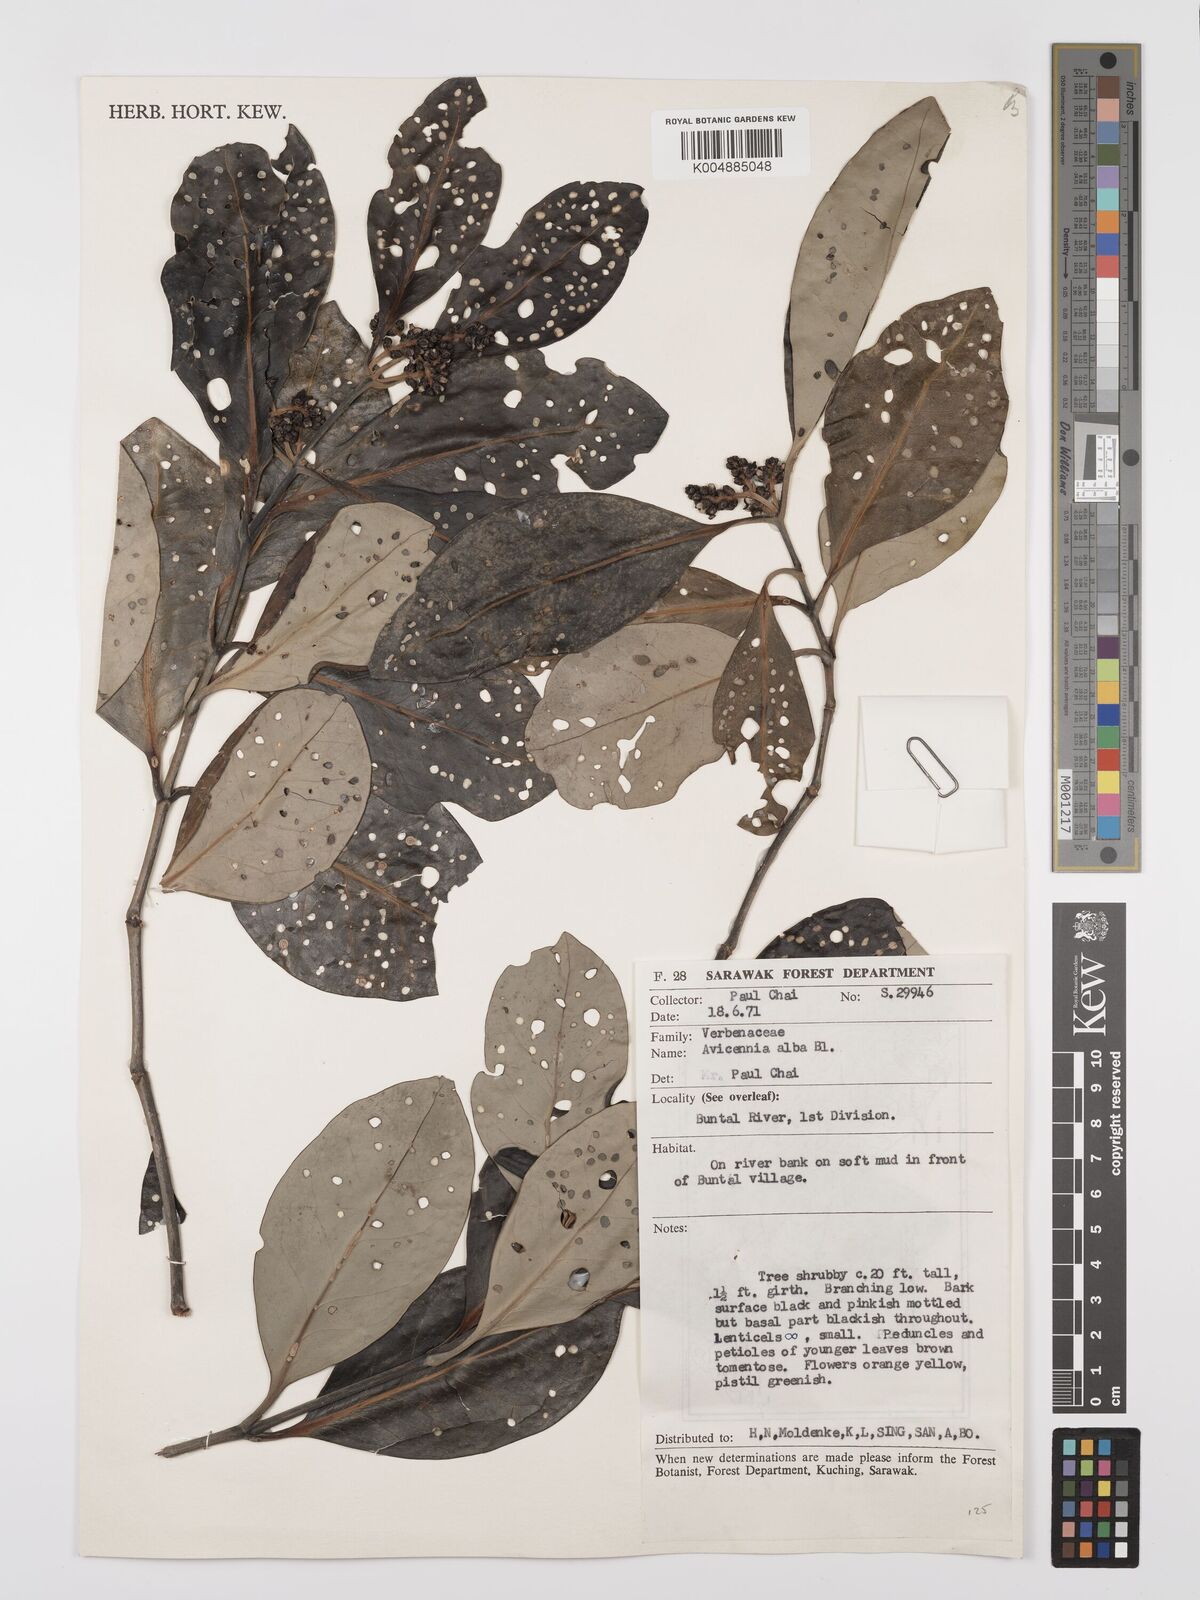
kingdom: Plantae
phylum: Tracheophyta
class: Magnoliopsida
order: Lamiales
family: Acanthaceae
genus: Avicennia
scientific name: Avicennia alba
